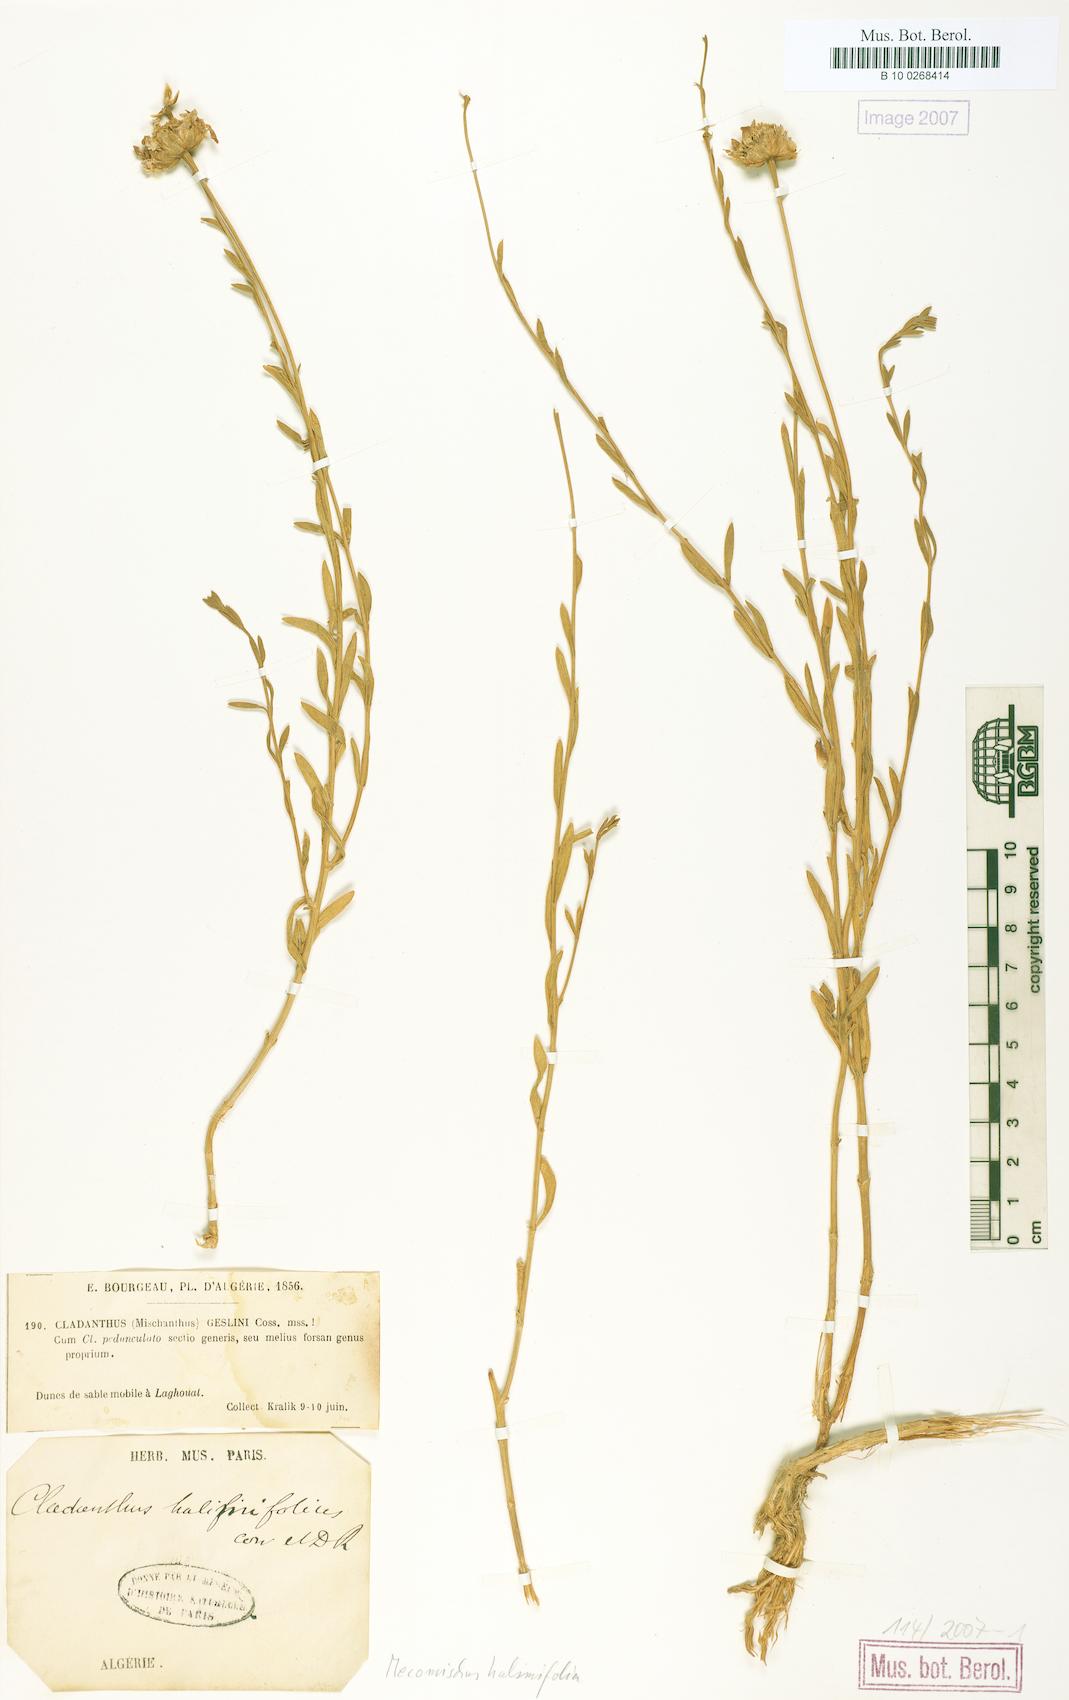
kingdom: Plantae
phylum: Tracheophyta
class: Magnoliopsida
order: Asterales
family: Asteraceae
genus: Mecomischus
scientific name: Mecomischus halimifolius
